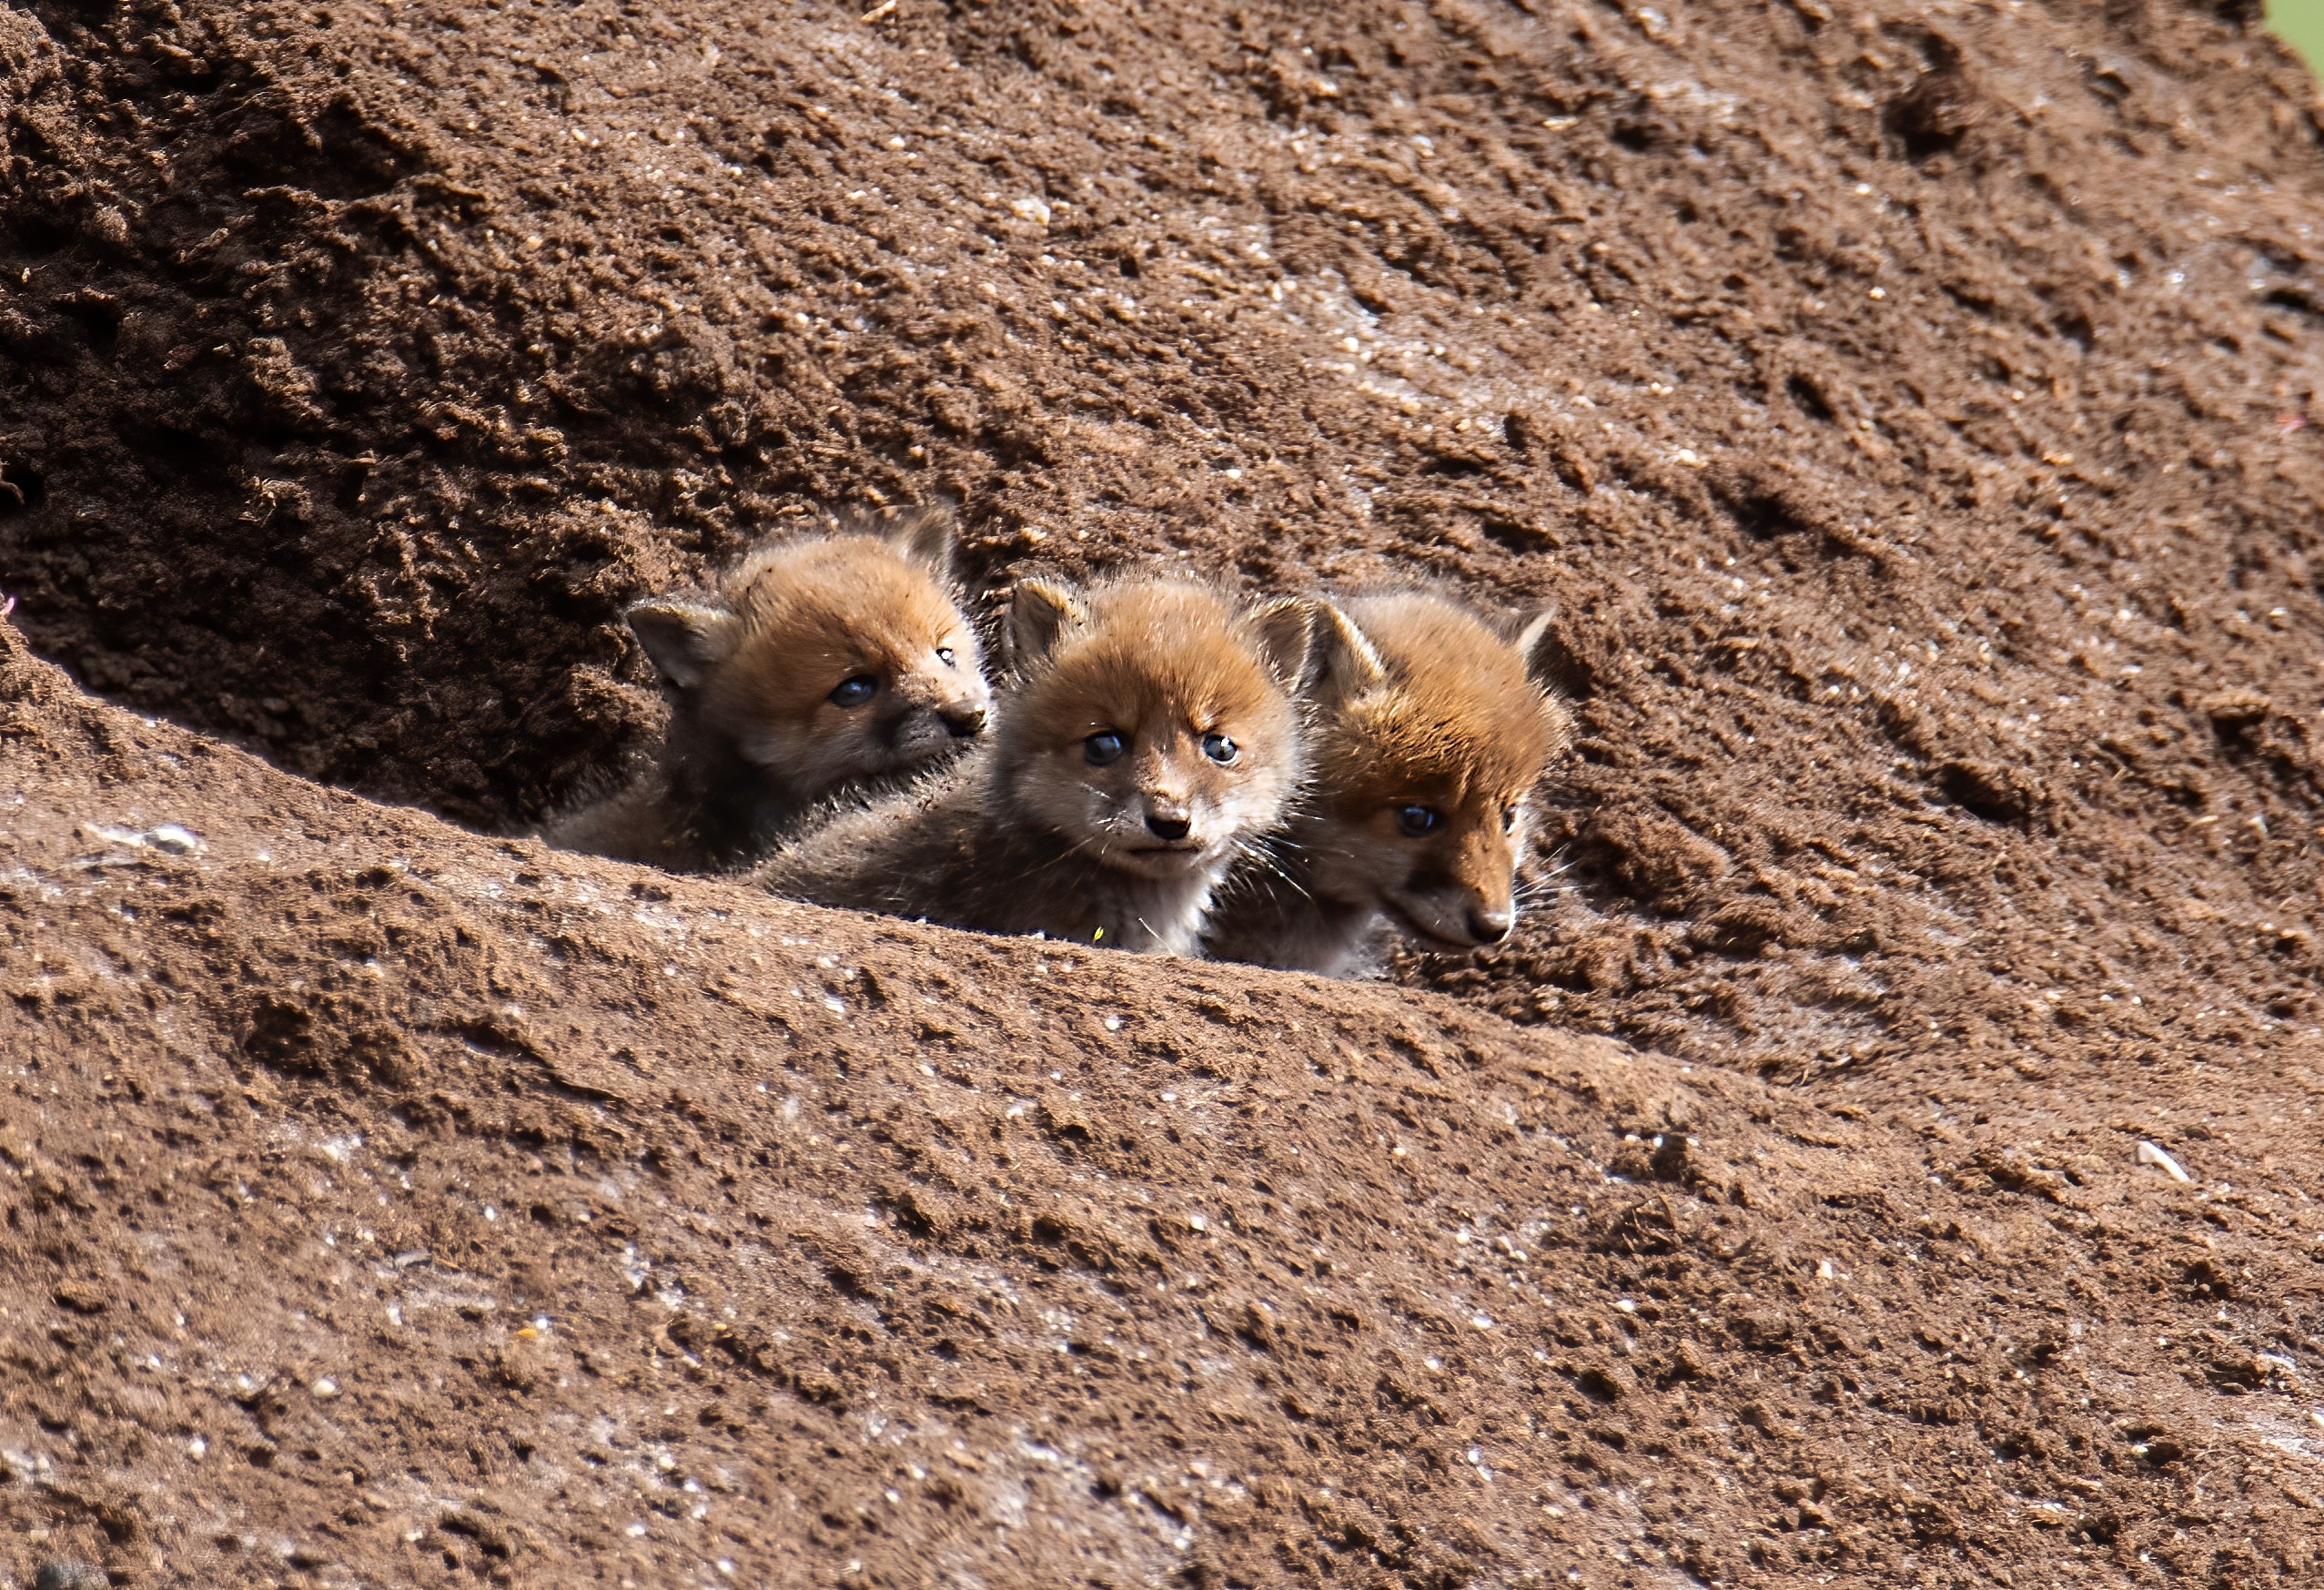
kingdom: Animalia
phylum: Chordata
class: Mammalia
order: Carnivora
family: Canidae
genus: Vulpes
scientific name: Vulpes vulpes
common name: Ræv
